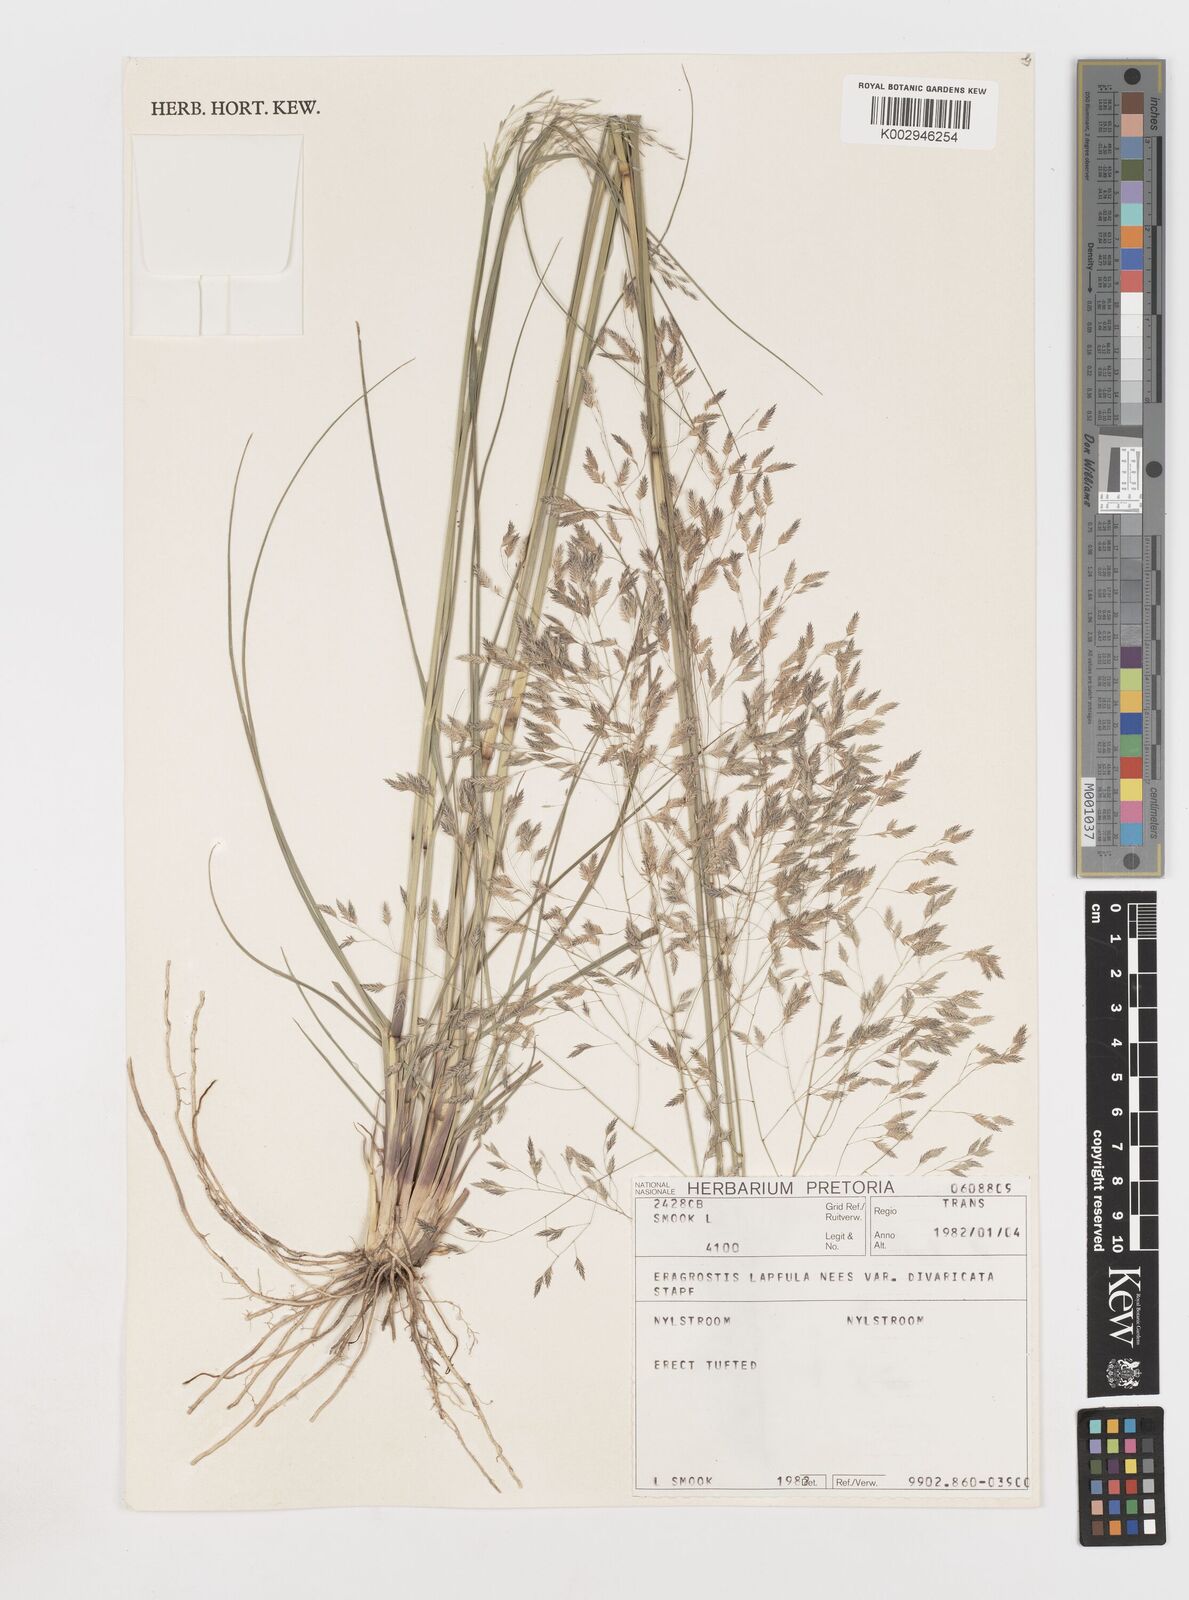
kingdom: Plantae
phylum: Tracheophyta
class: Liliopsida
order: Poales
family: Poaceae
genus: Eragrostis
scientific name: Eragrostis lappula
